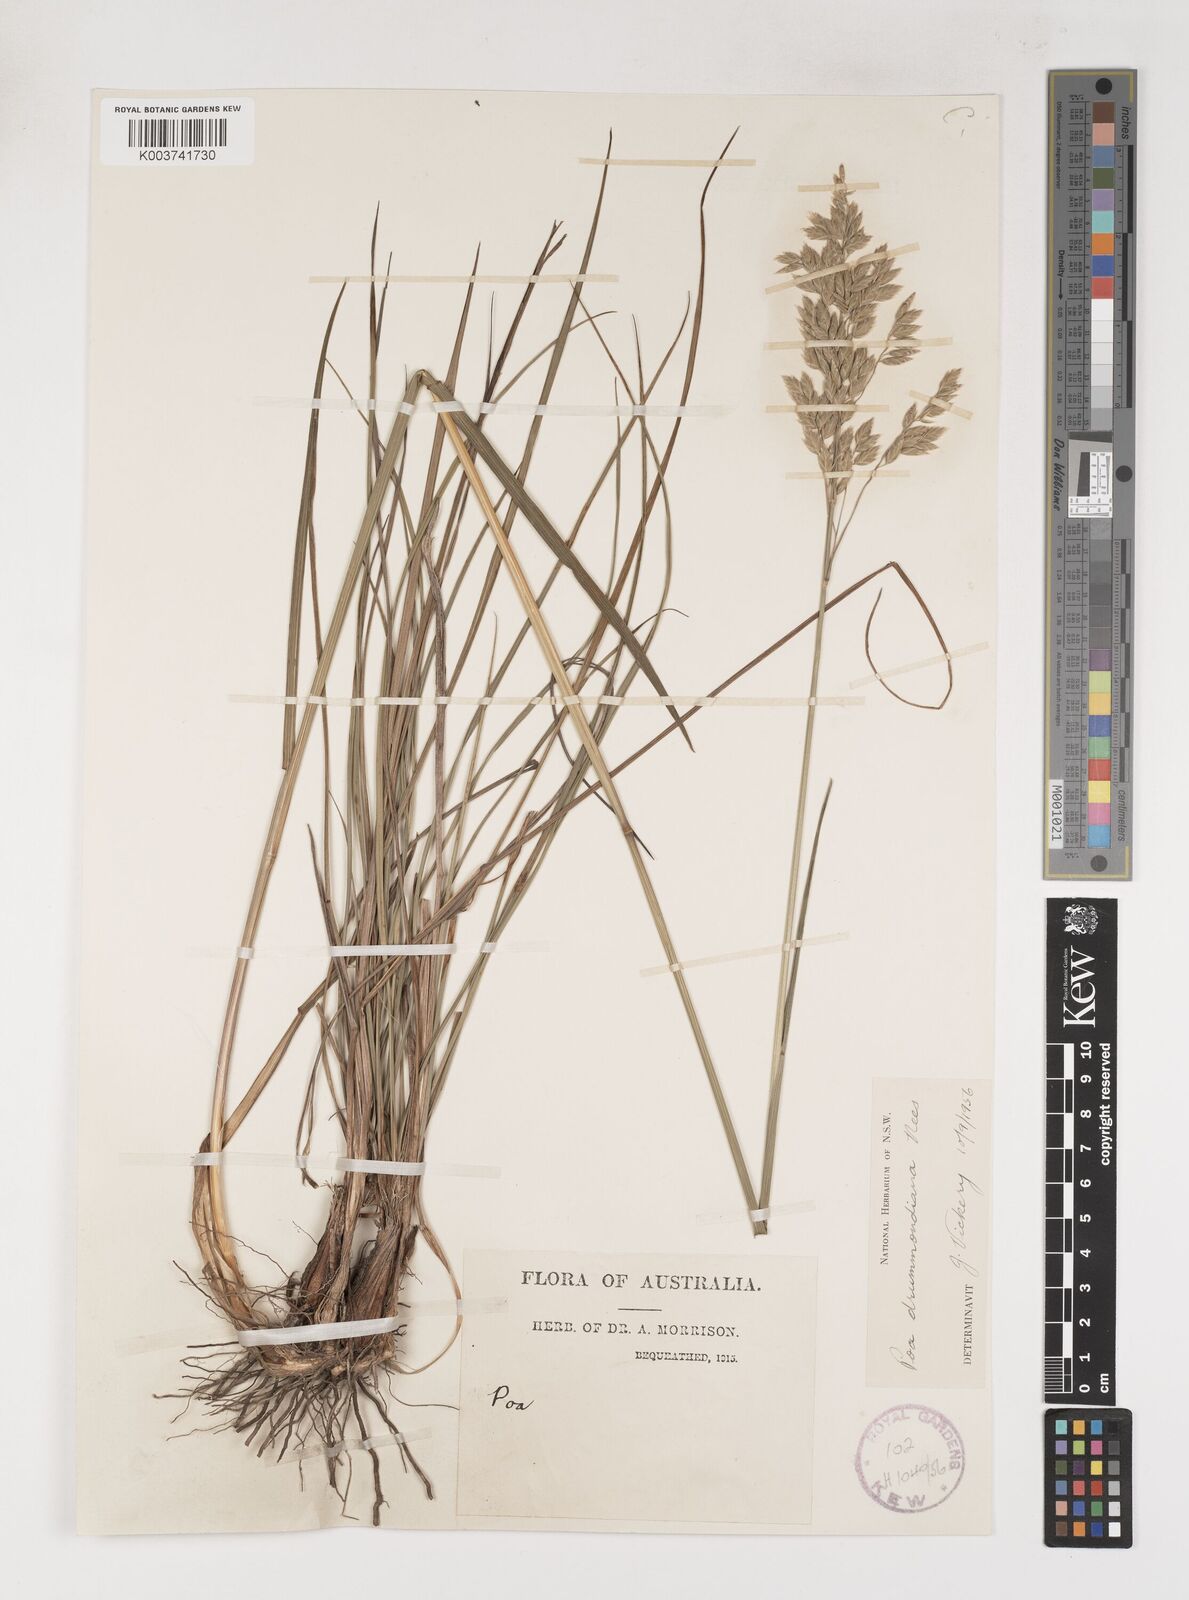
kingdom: Plantae
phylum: Tracheophyta
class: Liliopsida
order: Poales
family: Poaceae
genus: Poa
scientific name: Poa drummondiana
